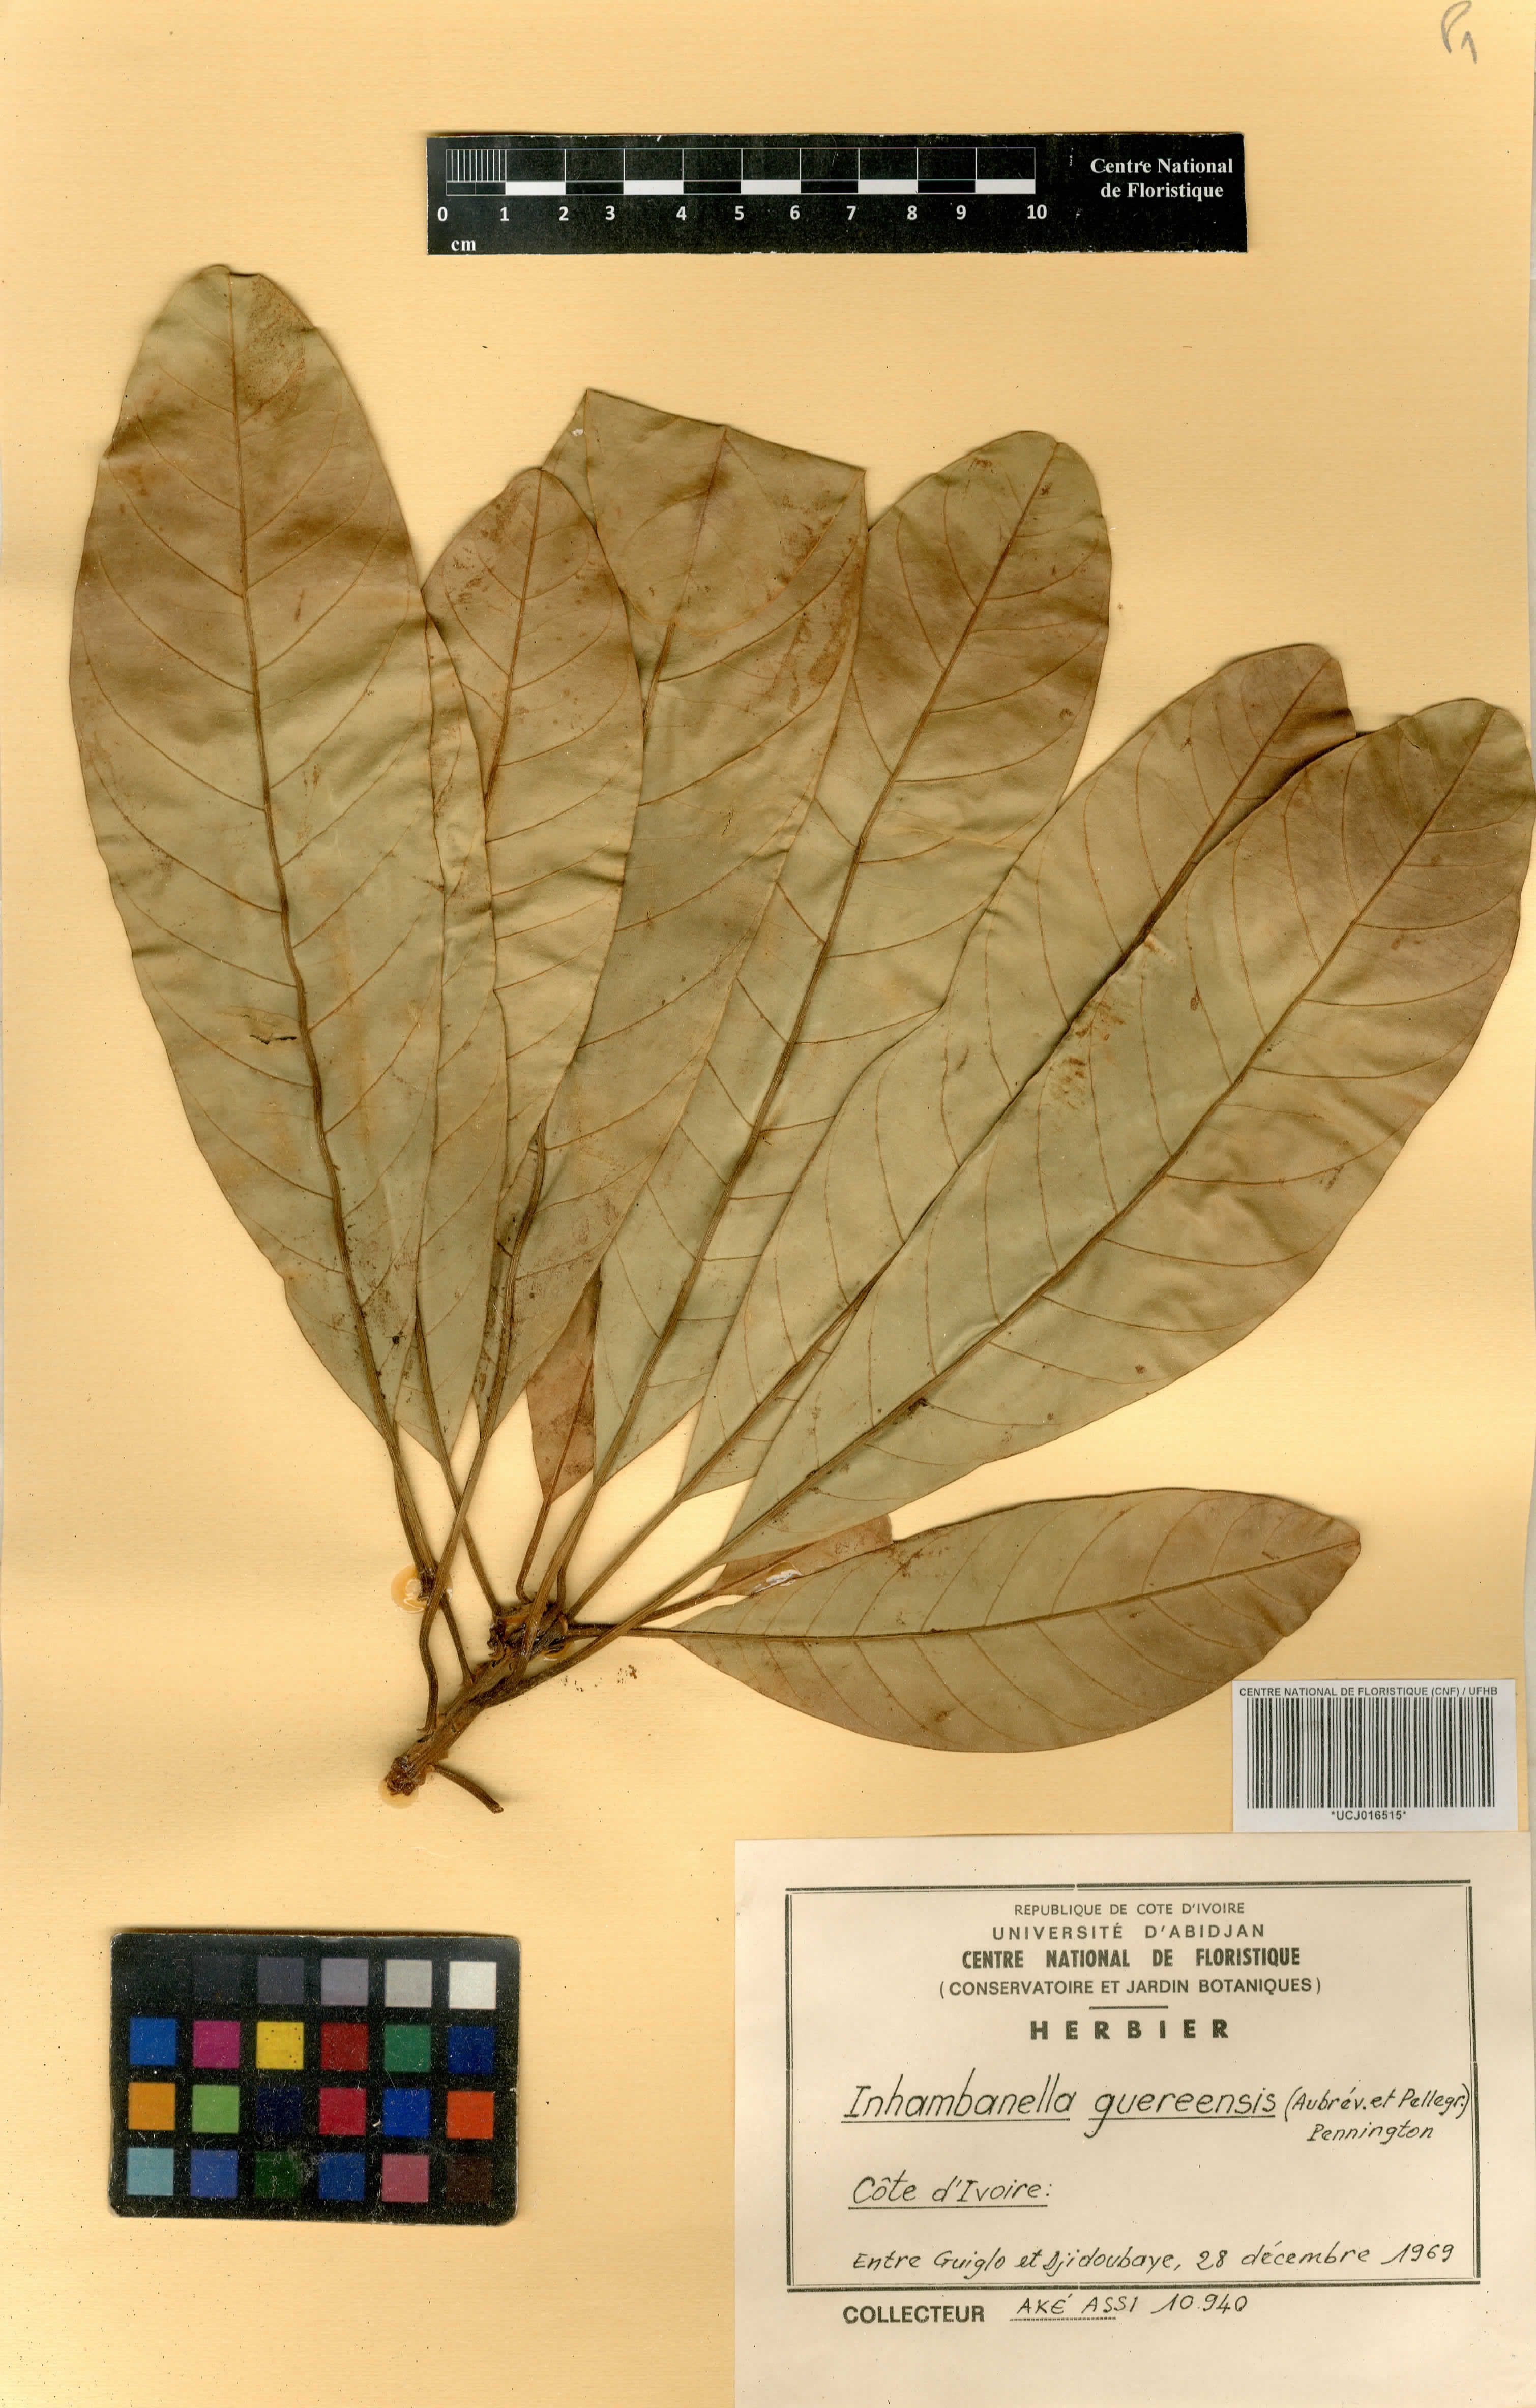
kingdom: Plantae
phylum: Tracheophyta
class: Magnoliopsida
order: Ericales
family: Sapotaceae
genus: Inhambanella
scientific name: Inhambanella guereensis
